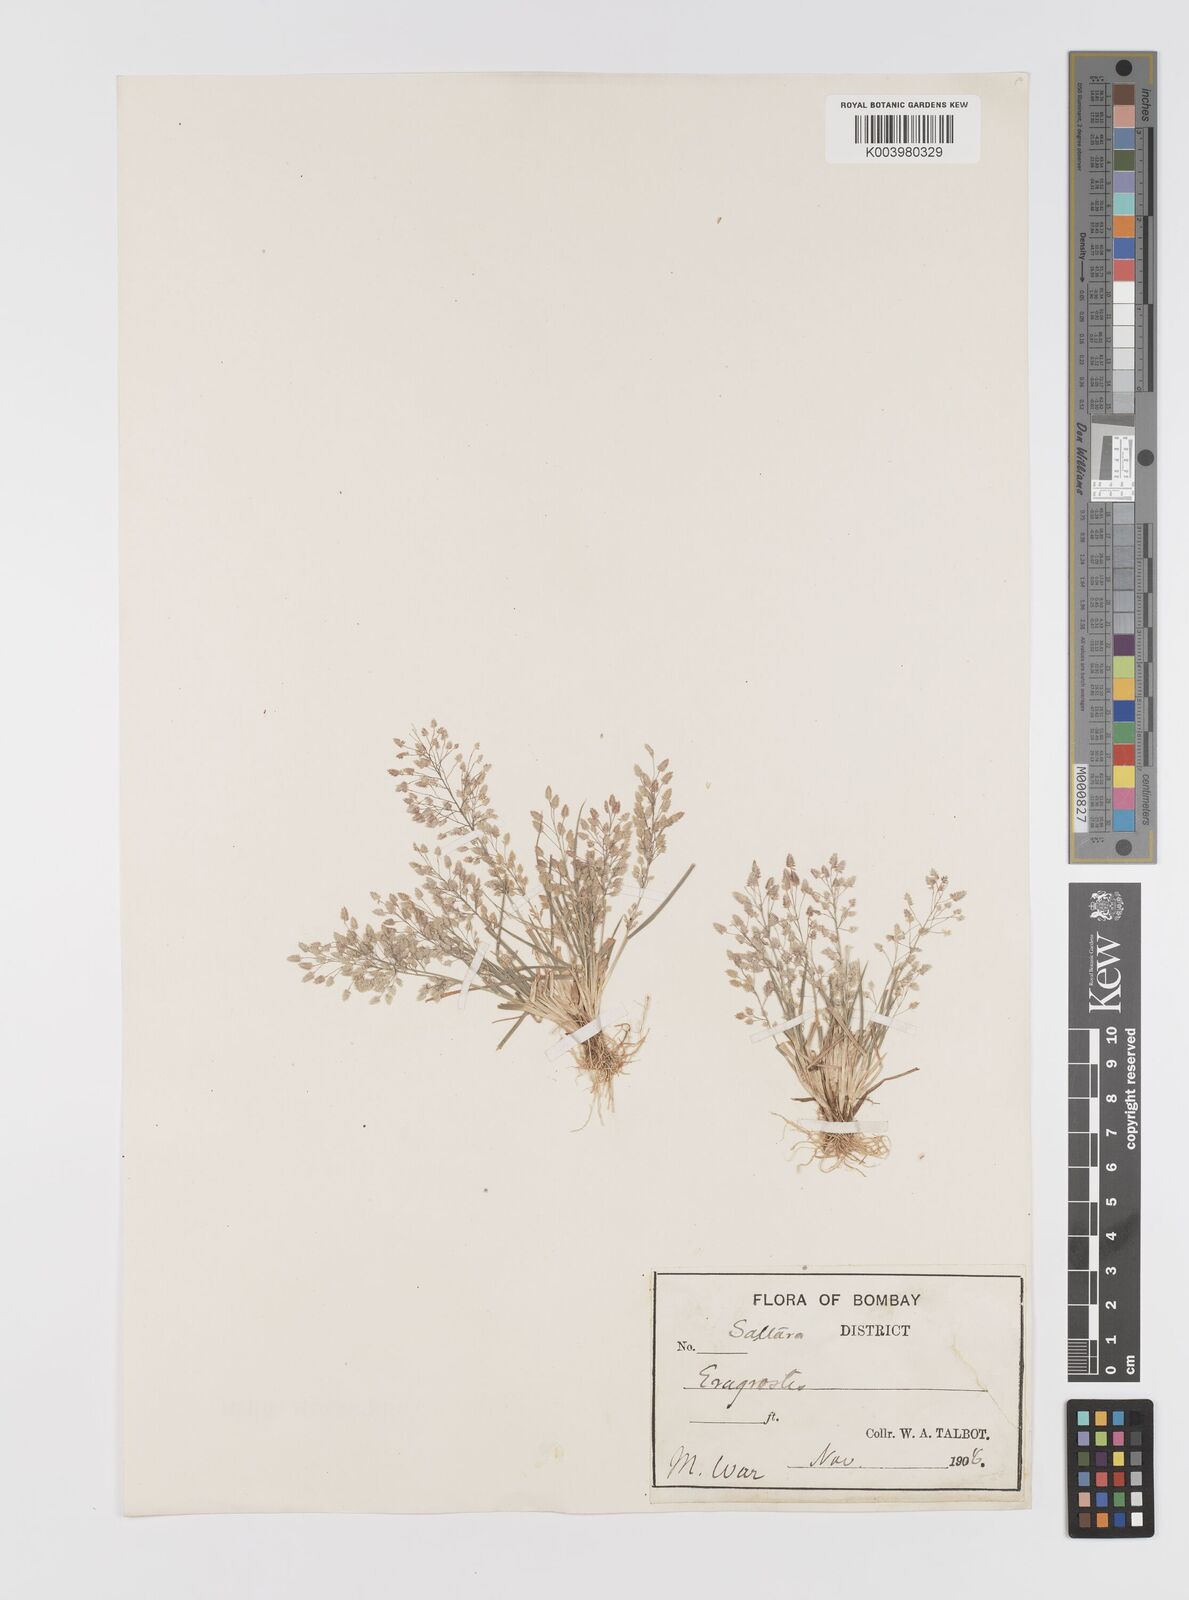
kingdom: Plantae
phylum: Tracheophyta
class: Liliopsida
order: Poales
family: Poaceae
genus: Eragrostis
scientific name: Eragrostis unioloides
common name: Chinese lovegrass
